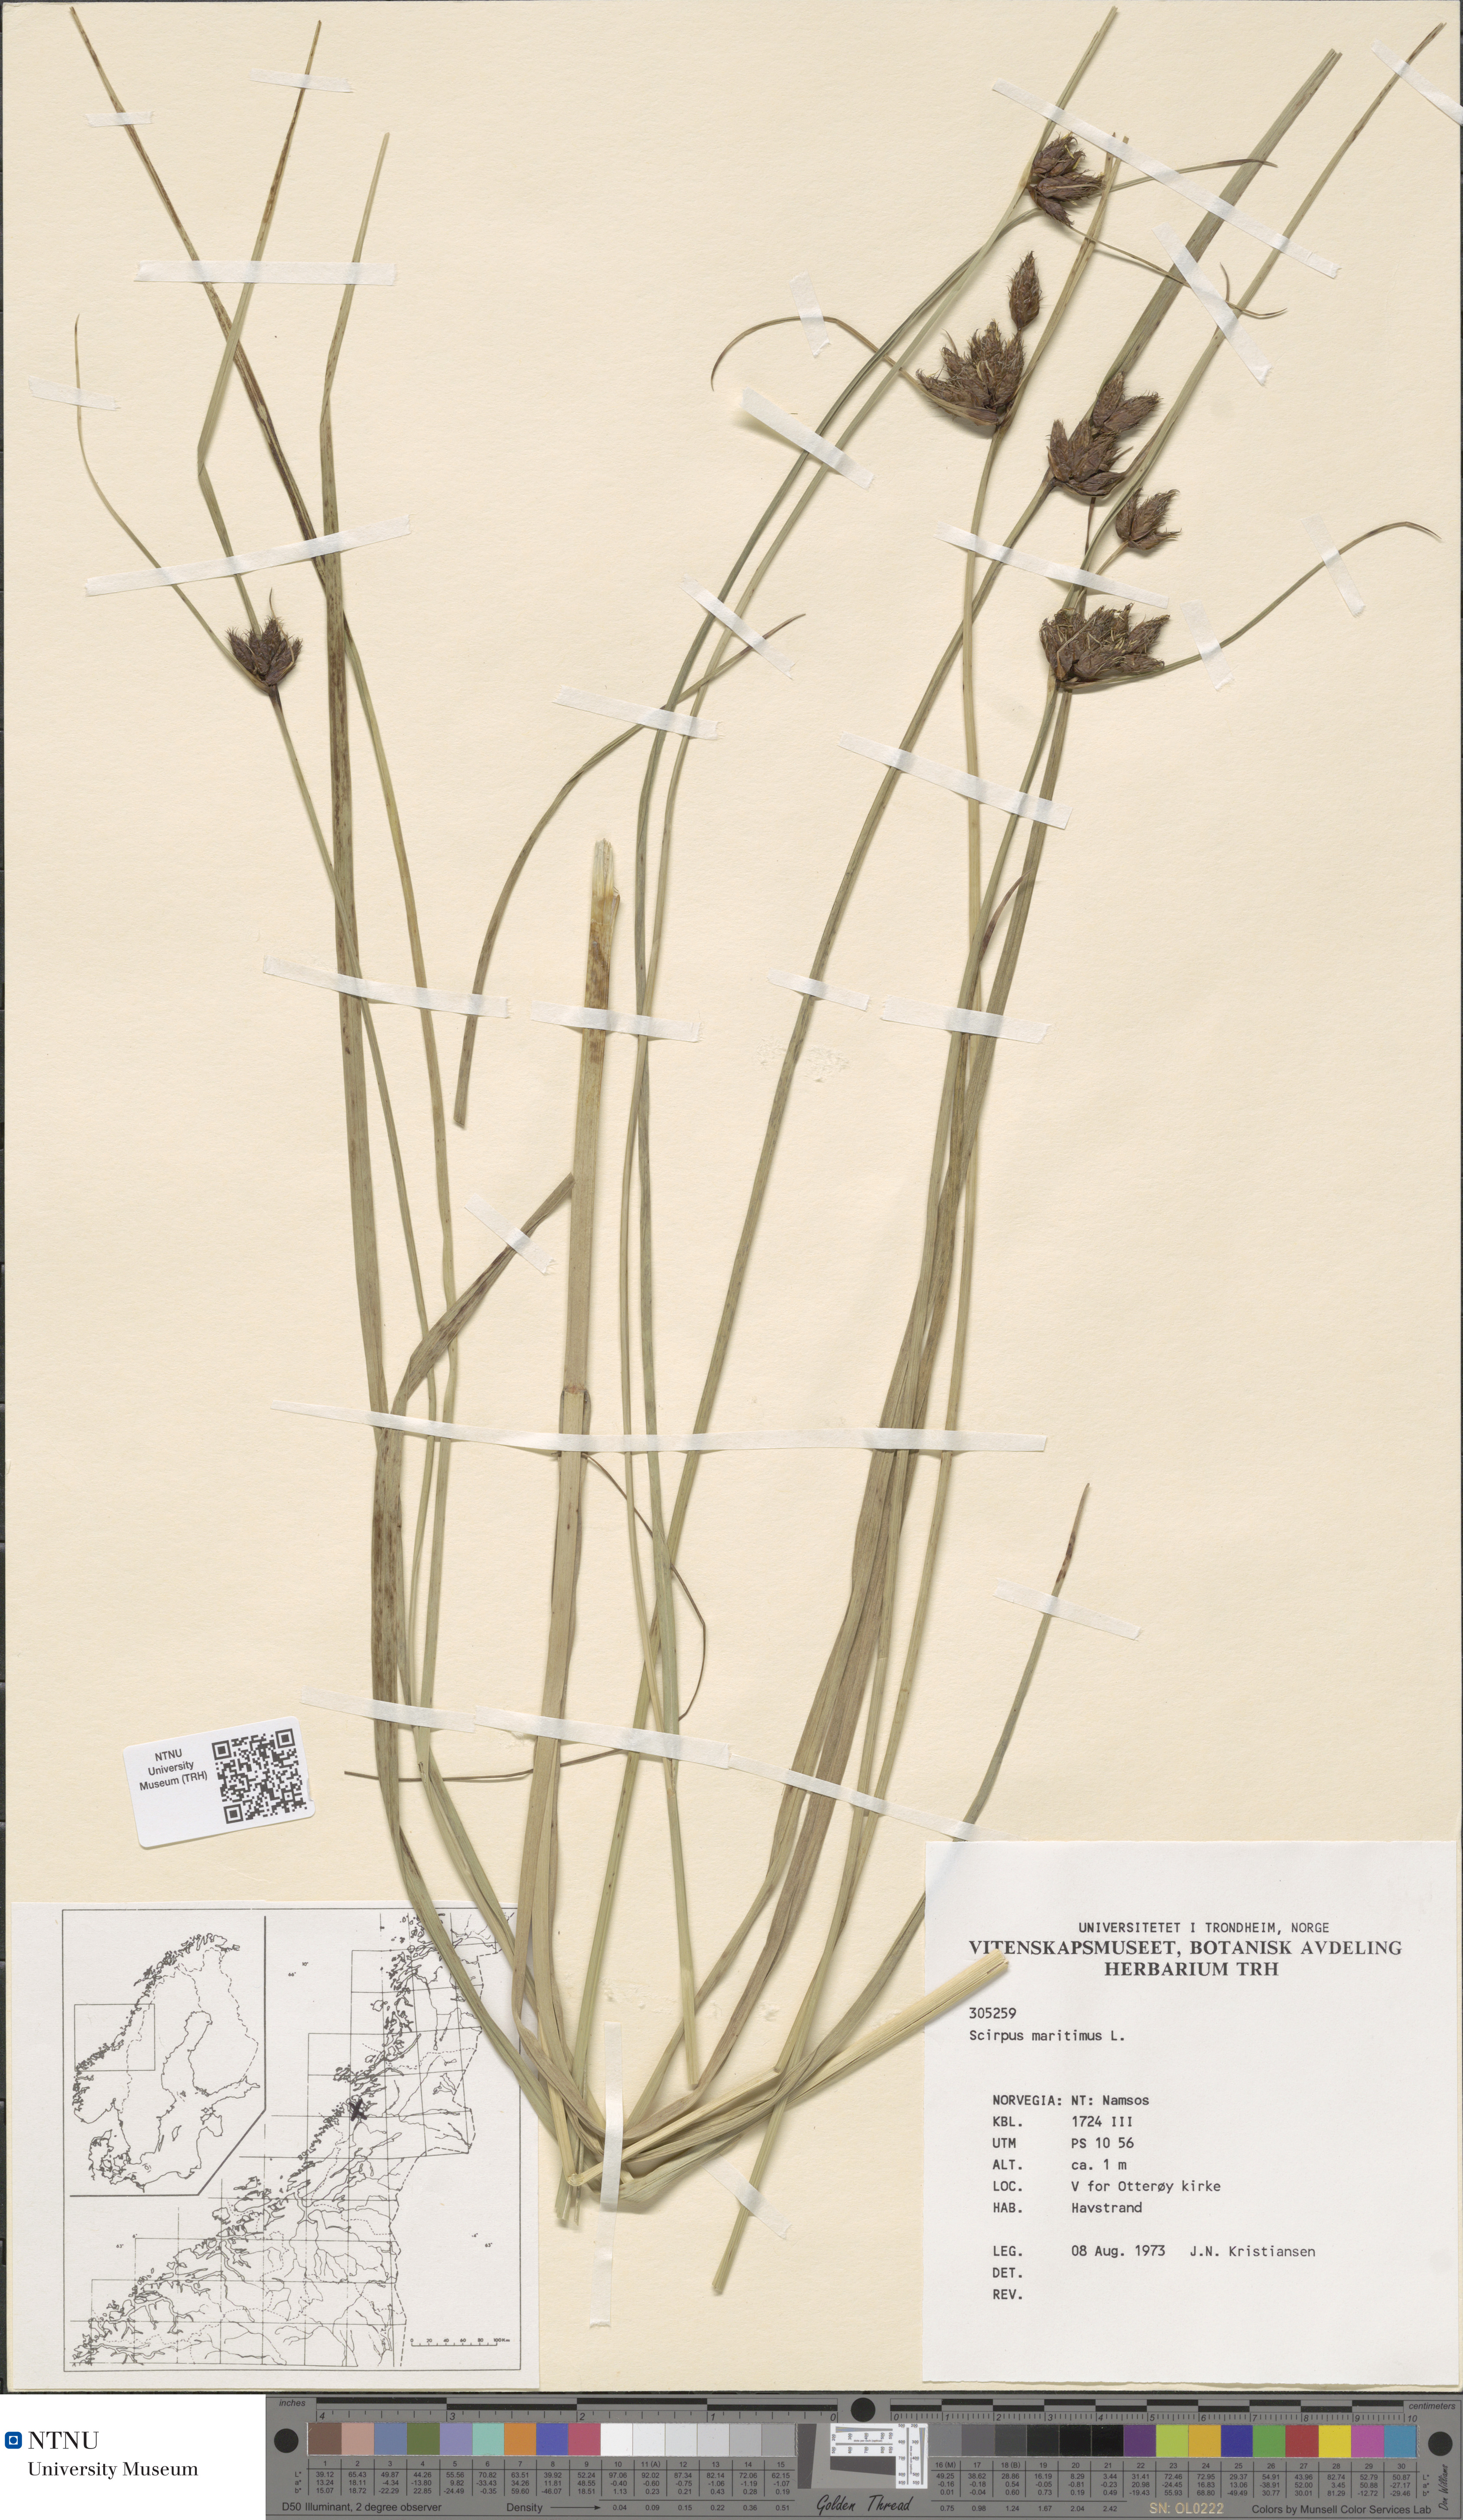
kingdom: Plantae
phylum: Tracheophyta
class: Liliopsida
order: Poales
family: Cyperaceae
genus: Bolboschoenus
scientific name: Bolboschoenus maritimus
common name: Sea club-rush
